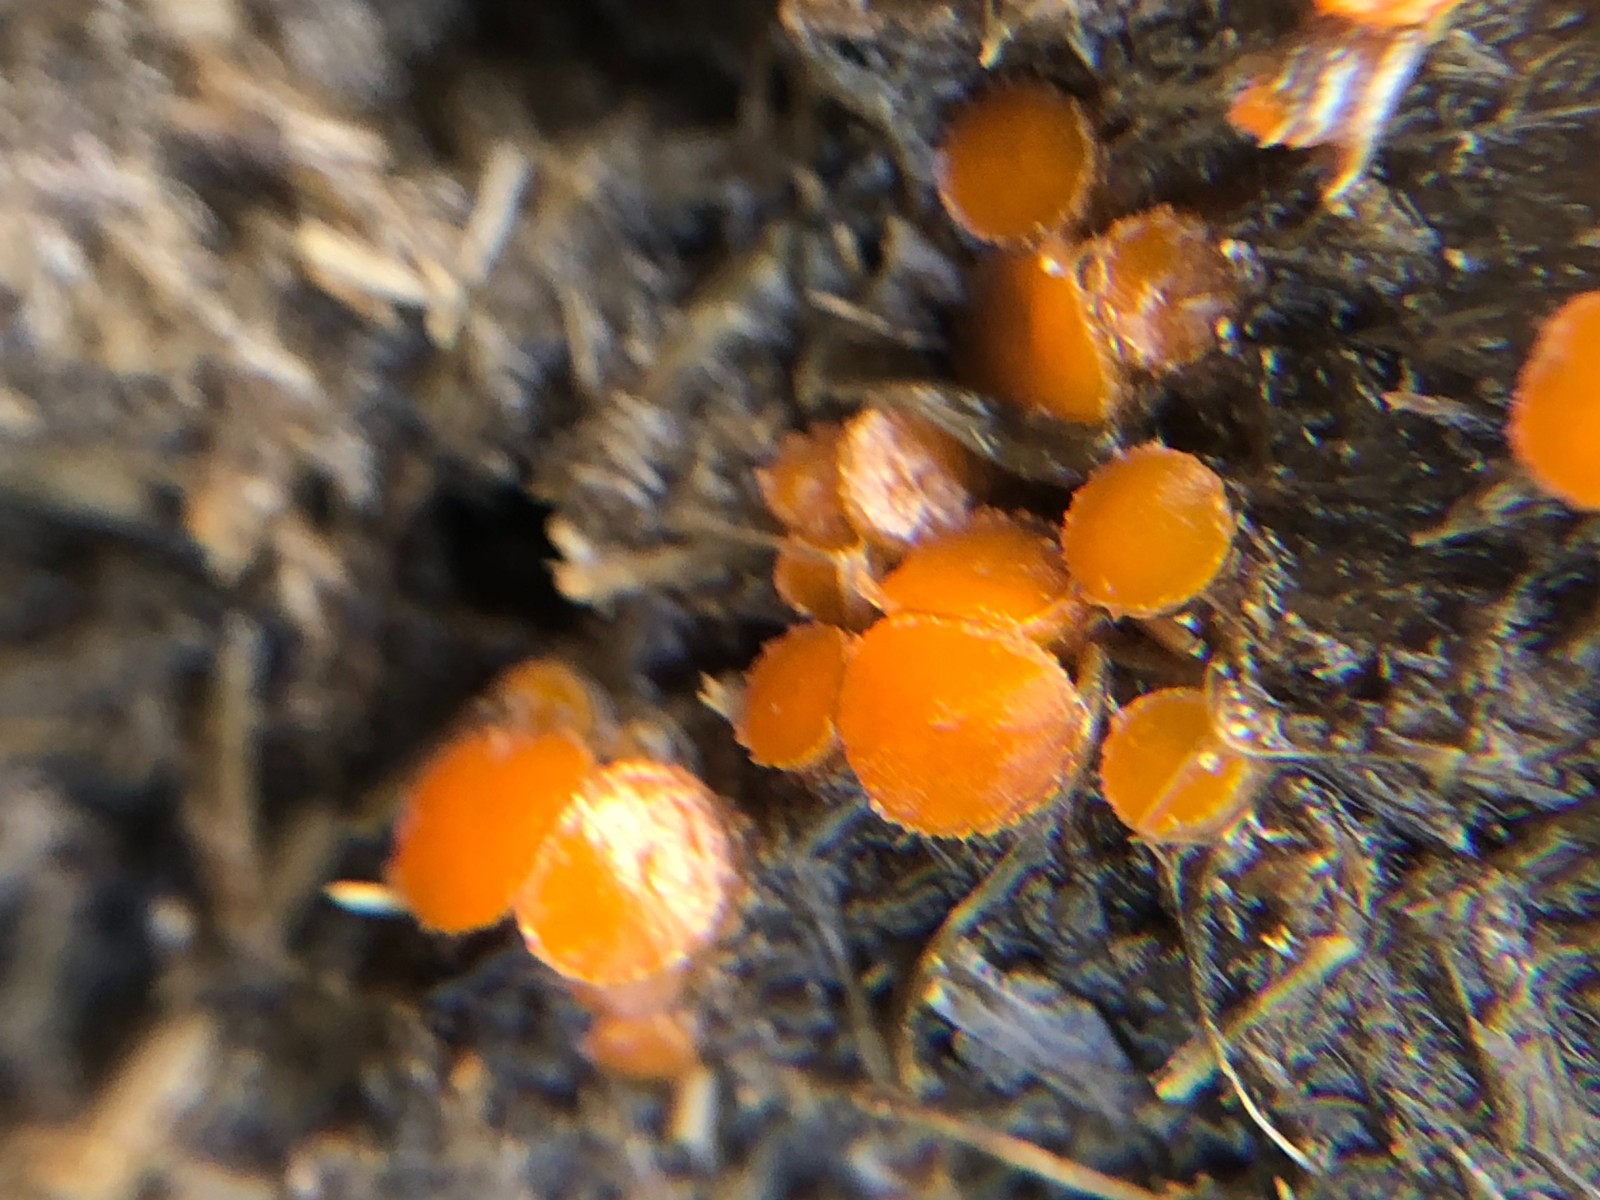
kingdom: Fungi
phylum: Ascomycota
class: Pezizomycetes
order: Pezizales
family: Pyronemataceae
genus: Cheilymenia
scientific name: Cheilymenia granulata
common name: møgbæger
